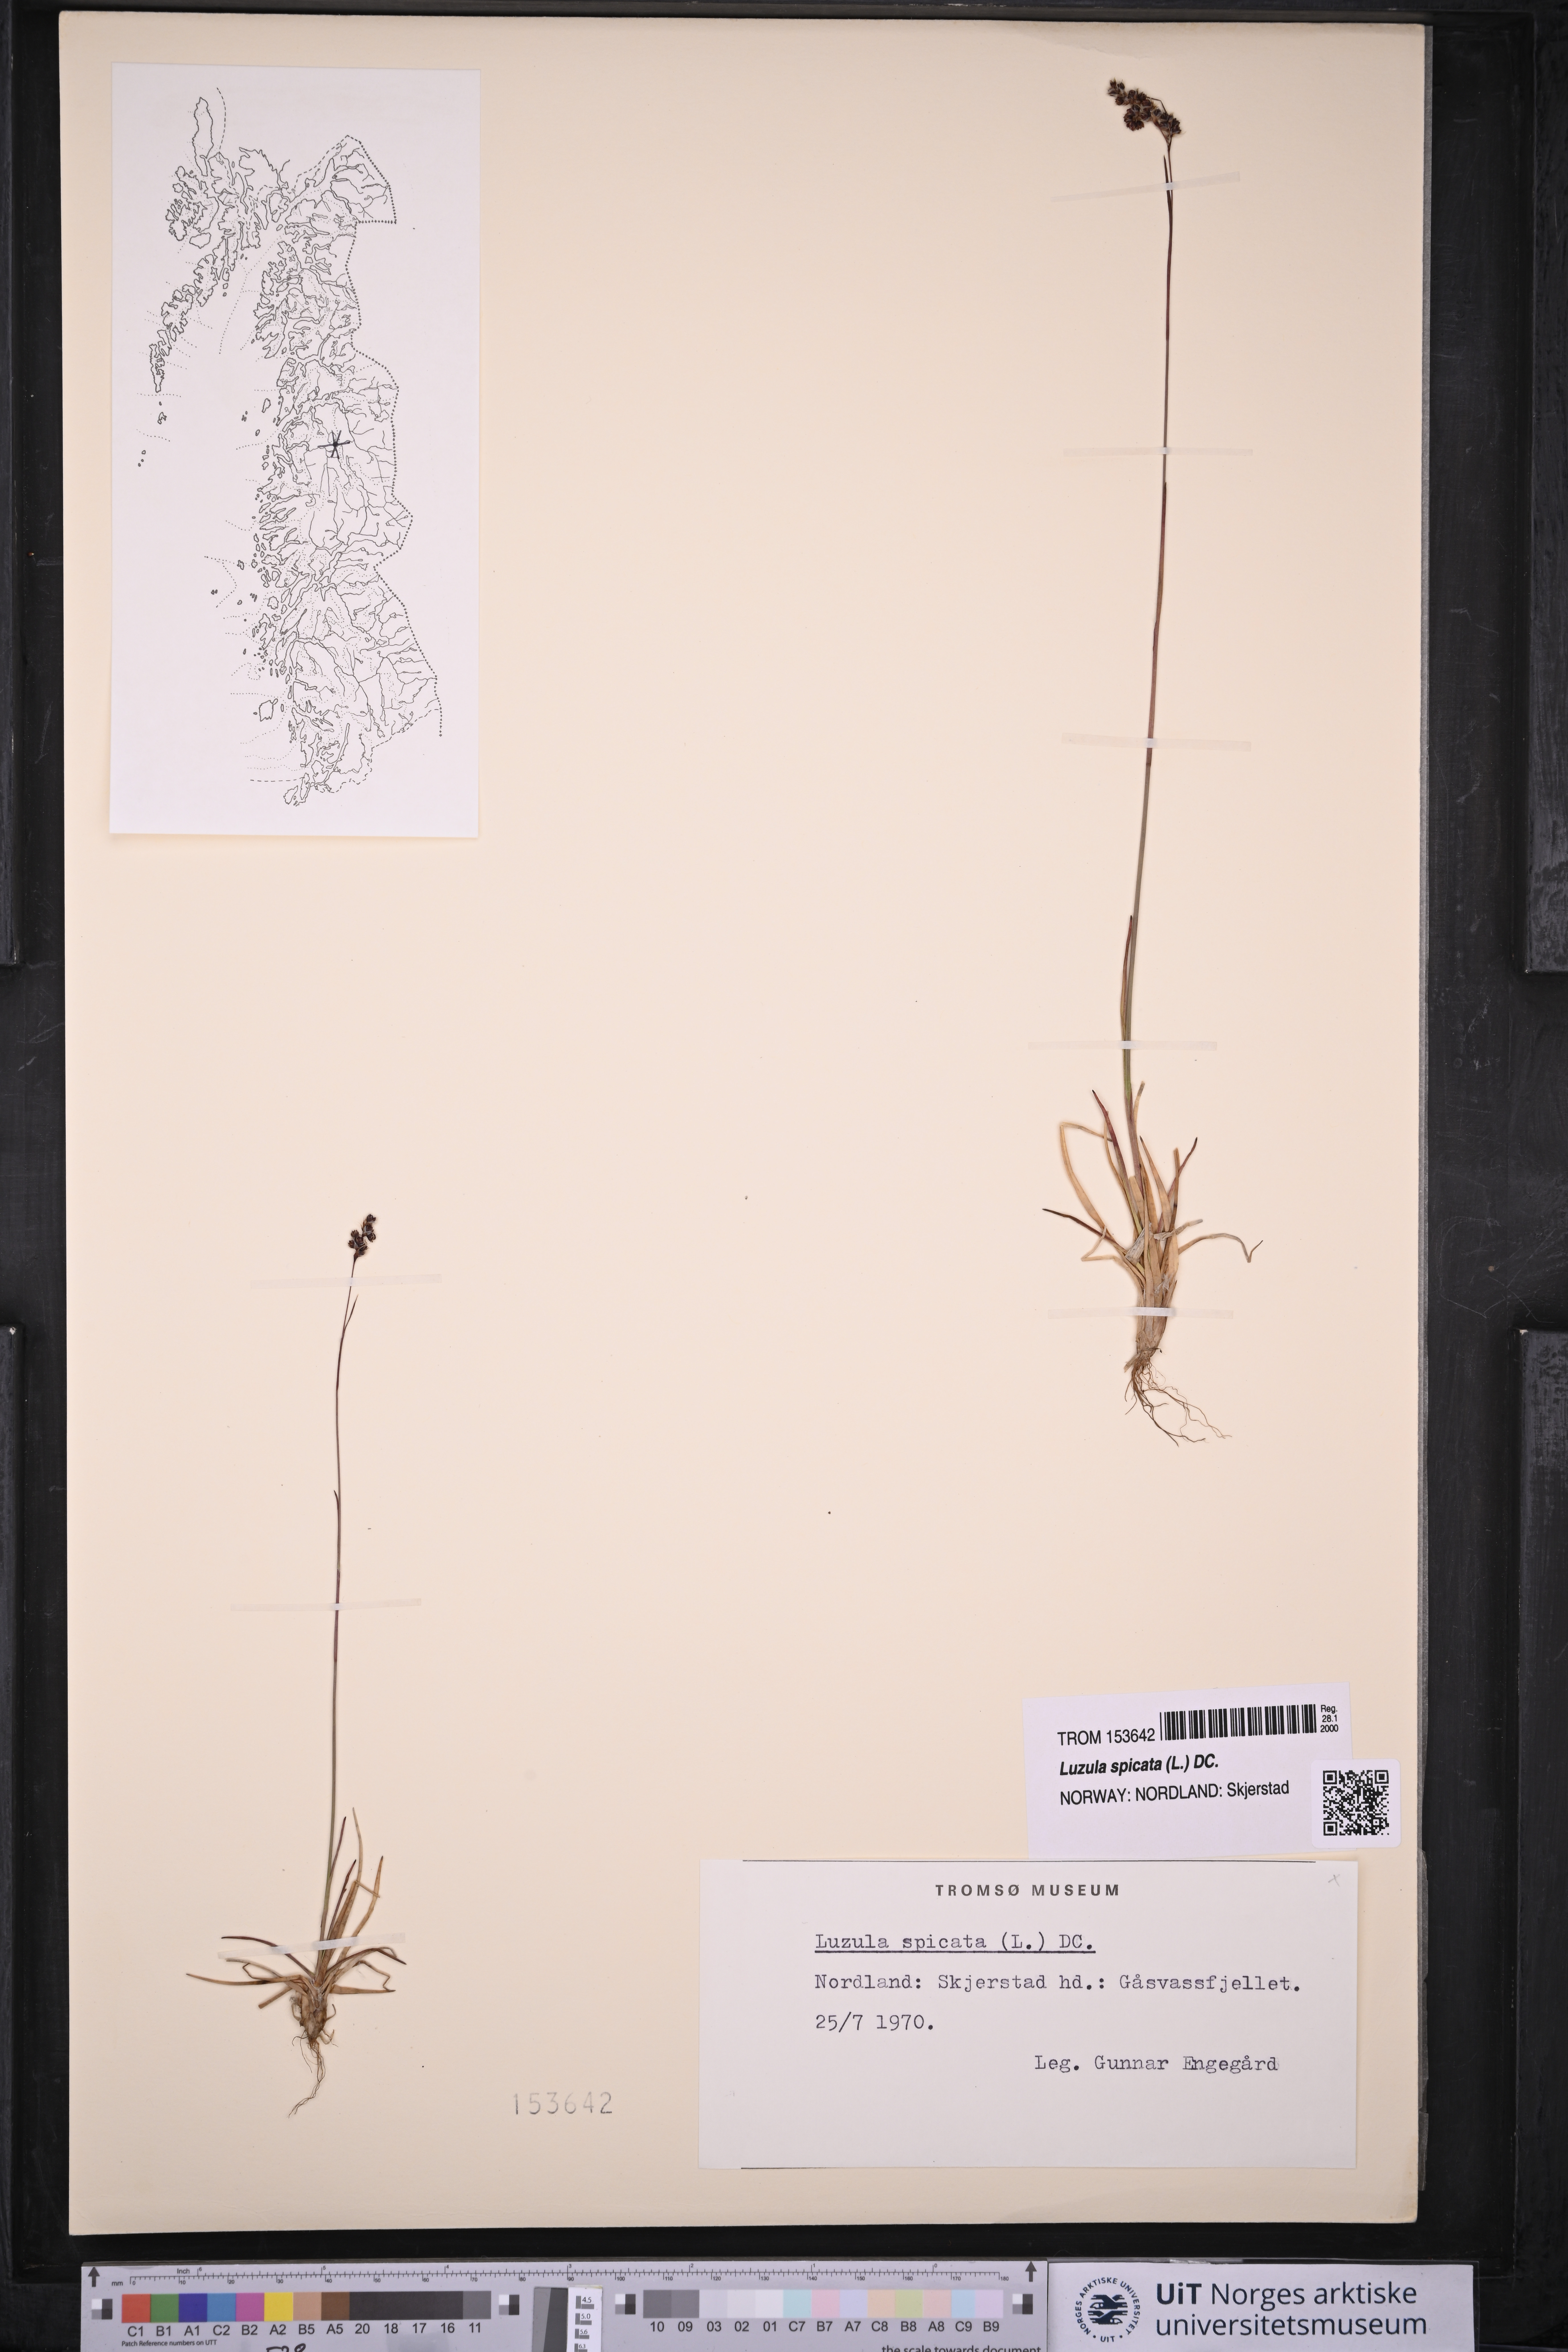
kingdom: Plantae
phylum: Tracheophyta
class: Liliopsida
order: Poales
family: Juncaceae
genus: Luzula
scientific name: Luzula spicata
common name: Spiked wood-rush
